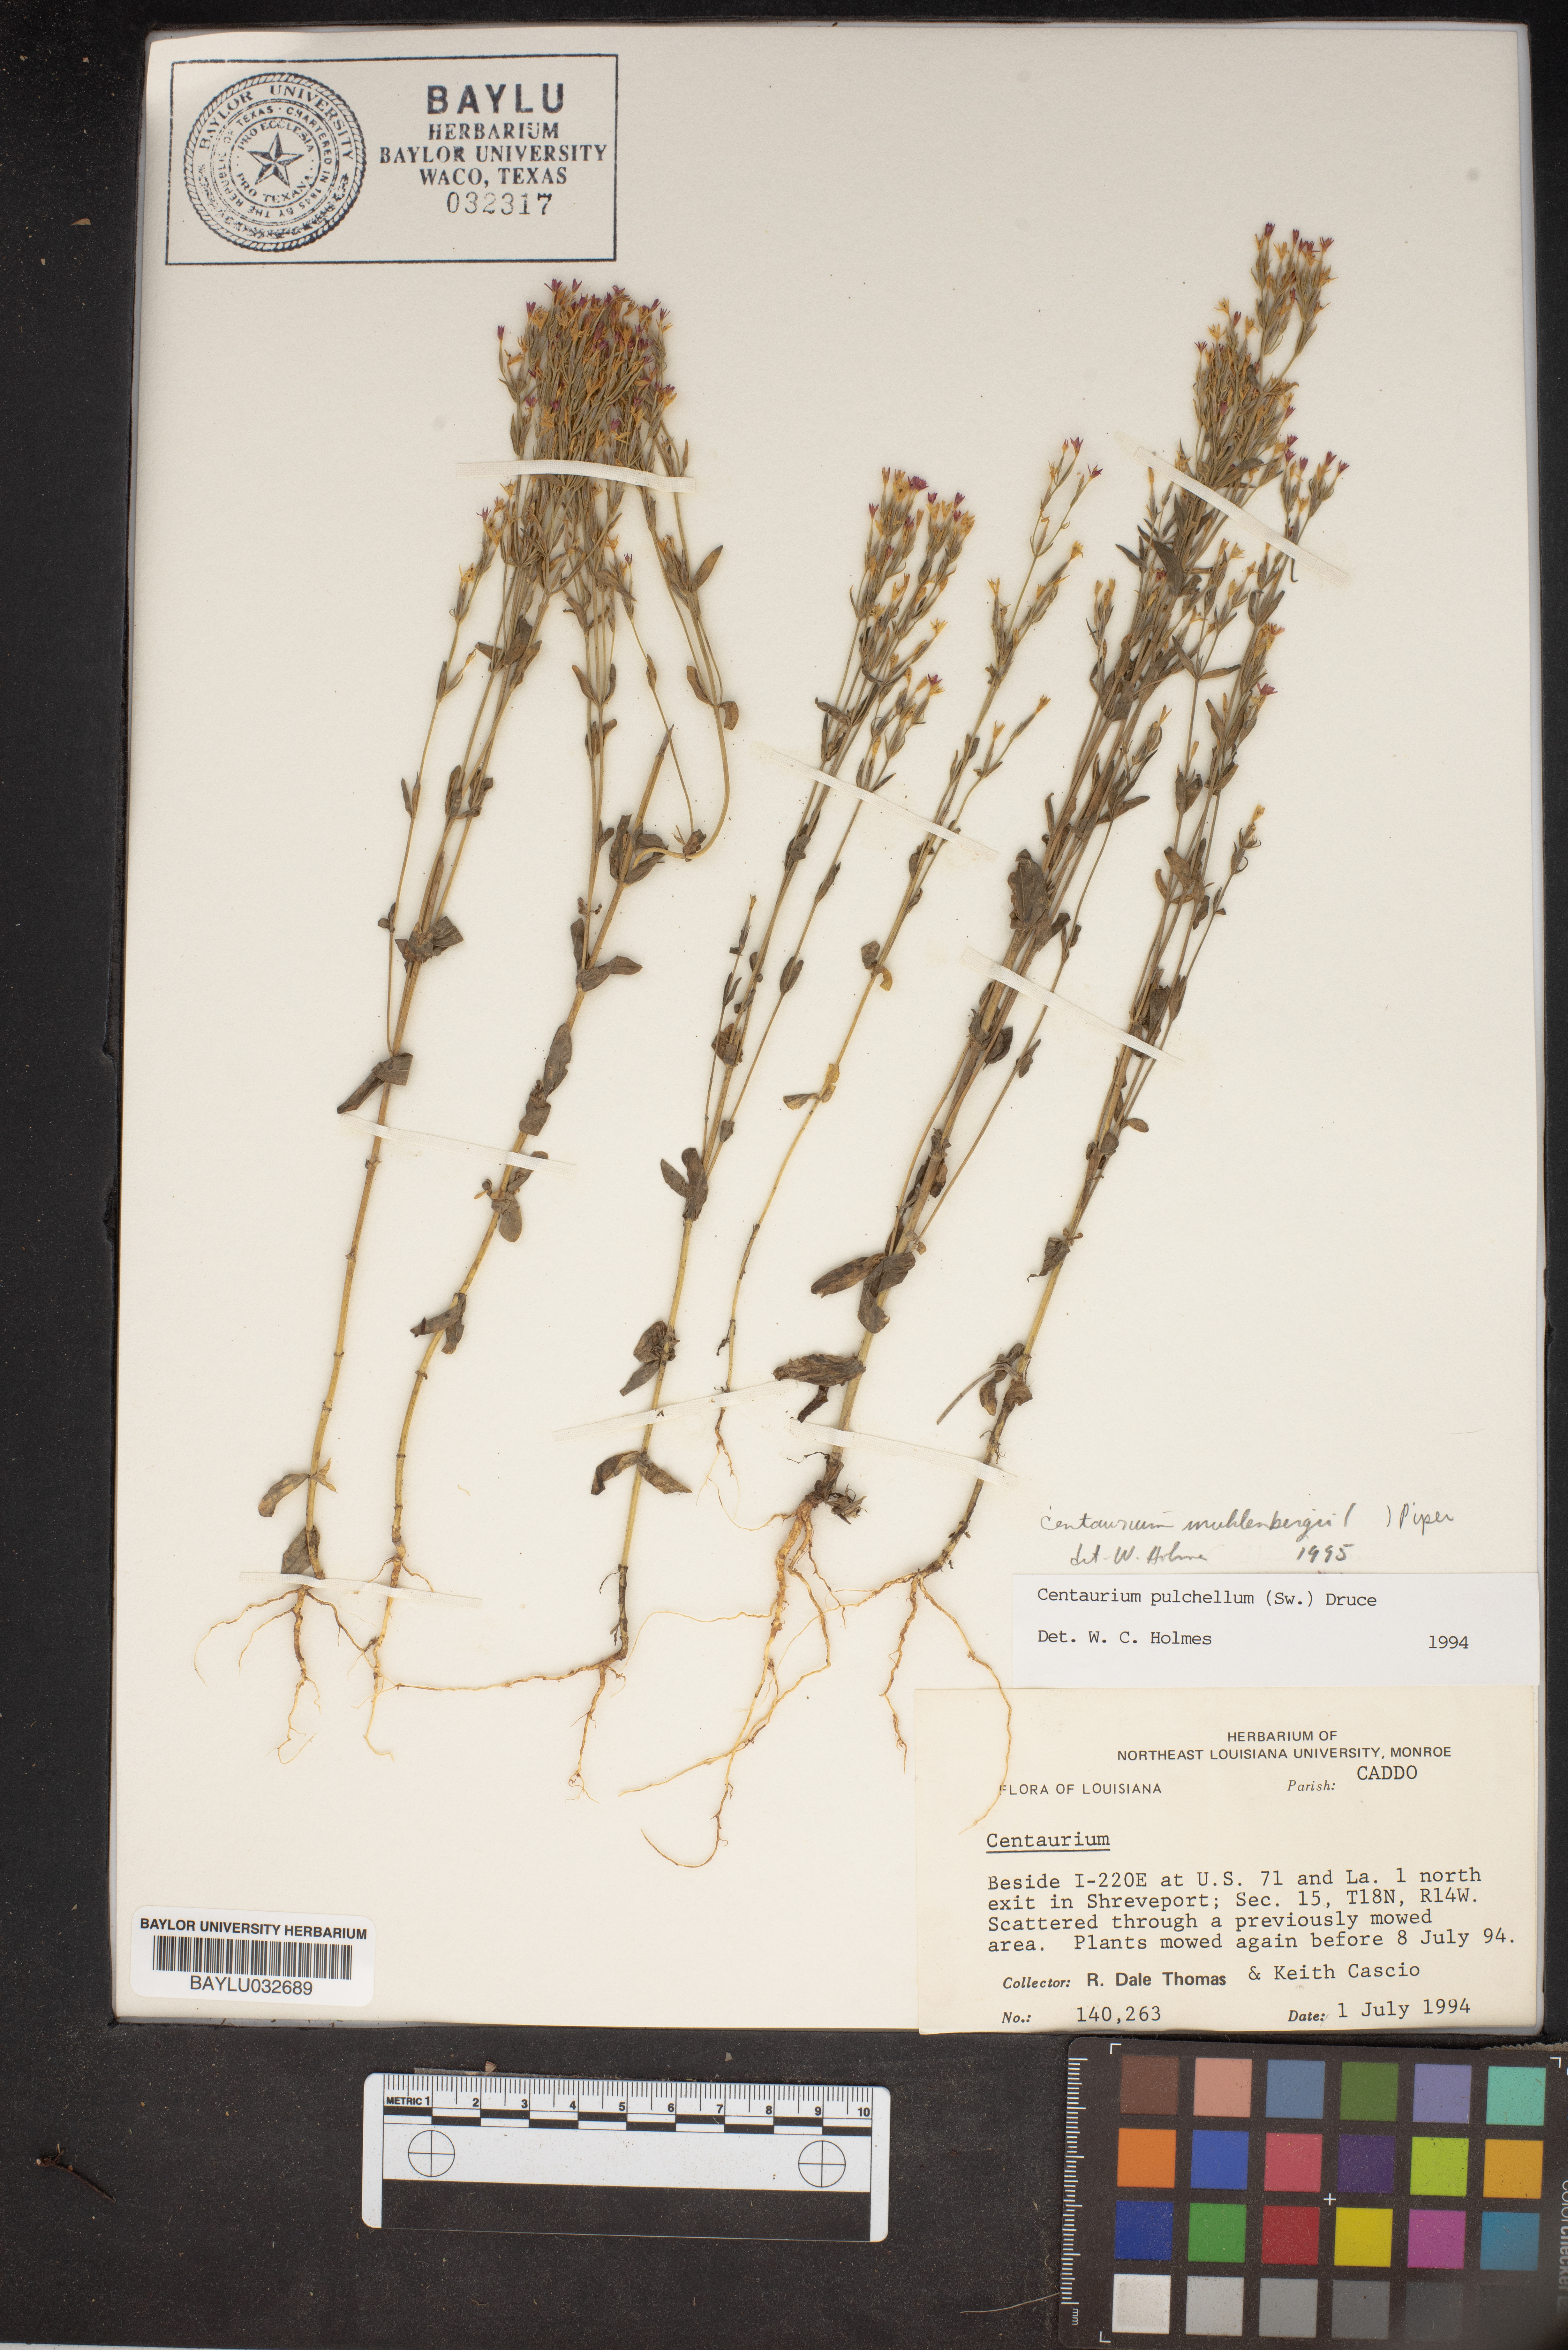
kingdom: Plantae
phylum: Tracheophyta
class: Magnoliopsida
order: Gentianales
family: Gentianaceae
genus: Zeltnera
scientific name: Zeltnera muhlenbergii
